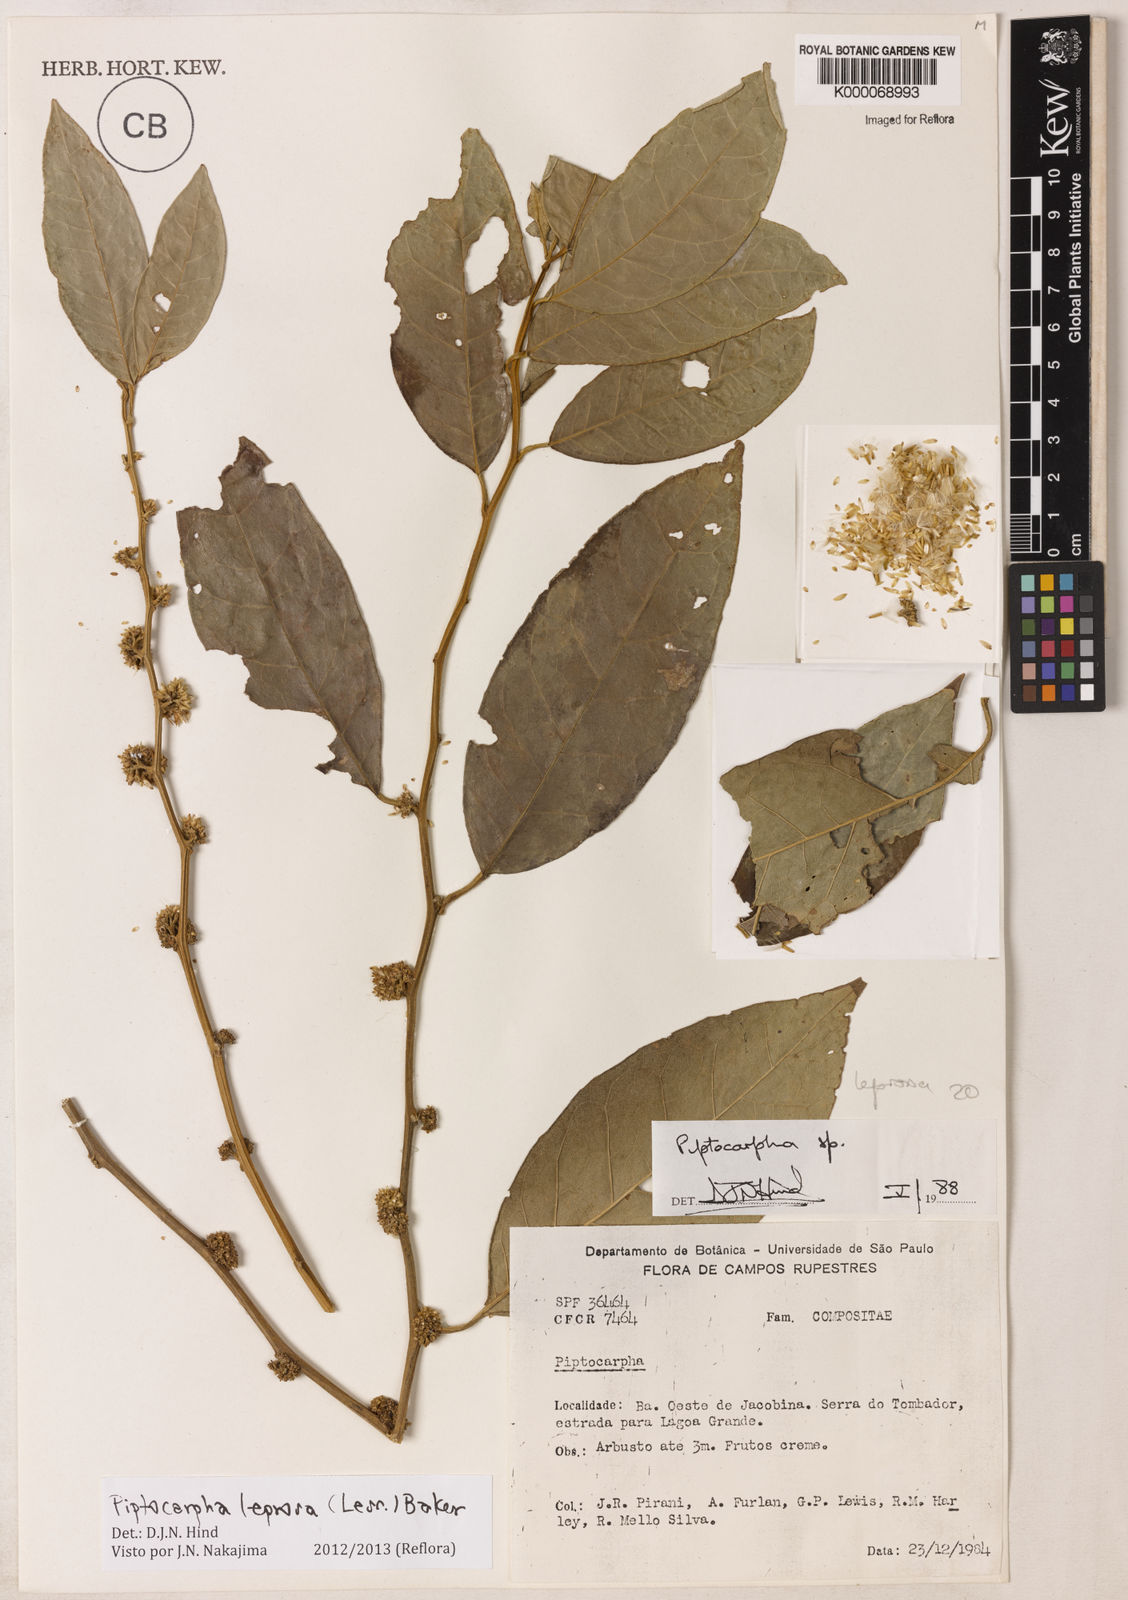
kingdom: Plantae
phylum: Tracheophyta
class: Magnoliopsida
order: Asterales
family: Asteraceae
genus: Piptocarpha
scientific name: Piptocarpha
